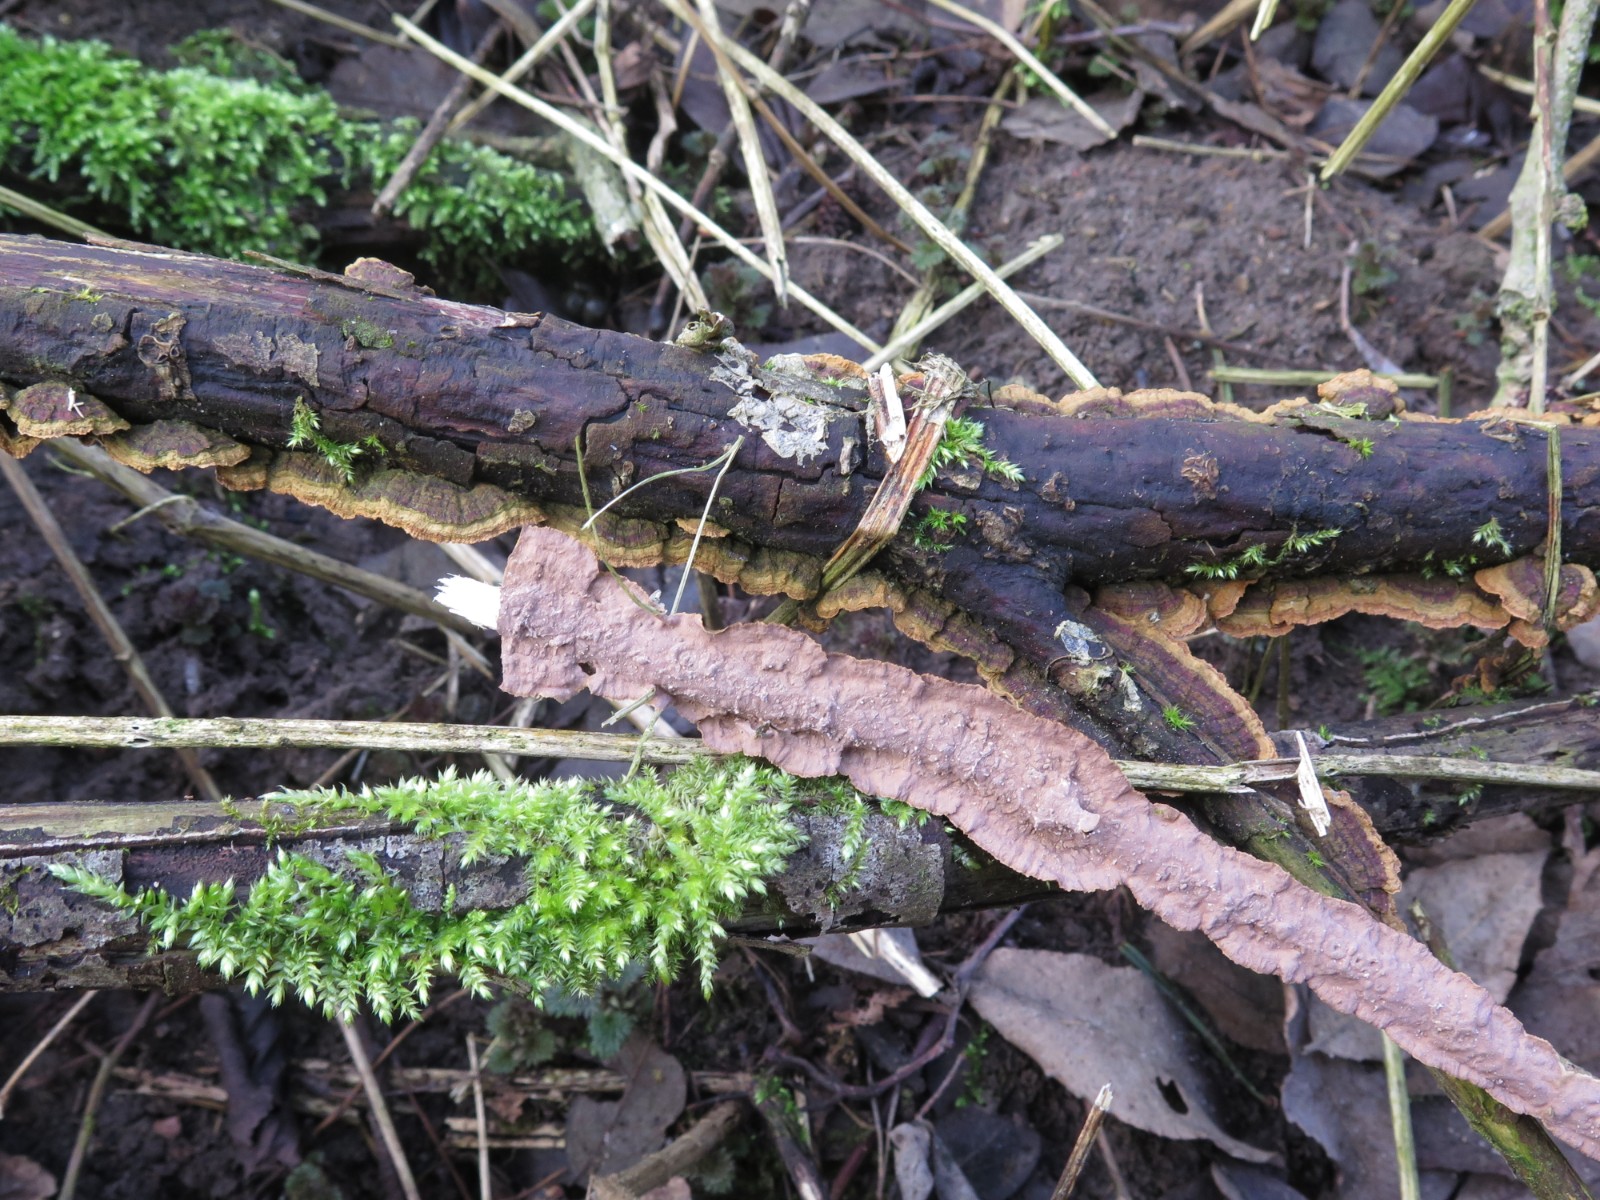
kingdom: Fungi
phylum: Basidiomycota
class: Agaricomycetes
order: Hymenochaetales
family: Hymenochaetaceae
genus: Hydnoporia
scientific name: Hydnoporia tabacina
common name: tobaksbrun ruslædersvamp
